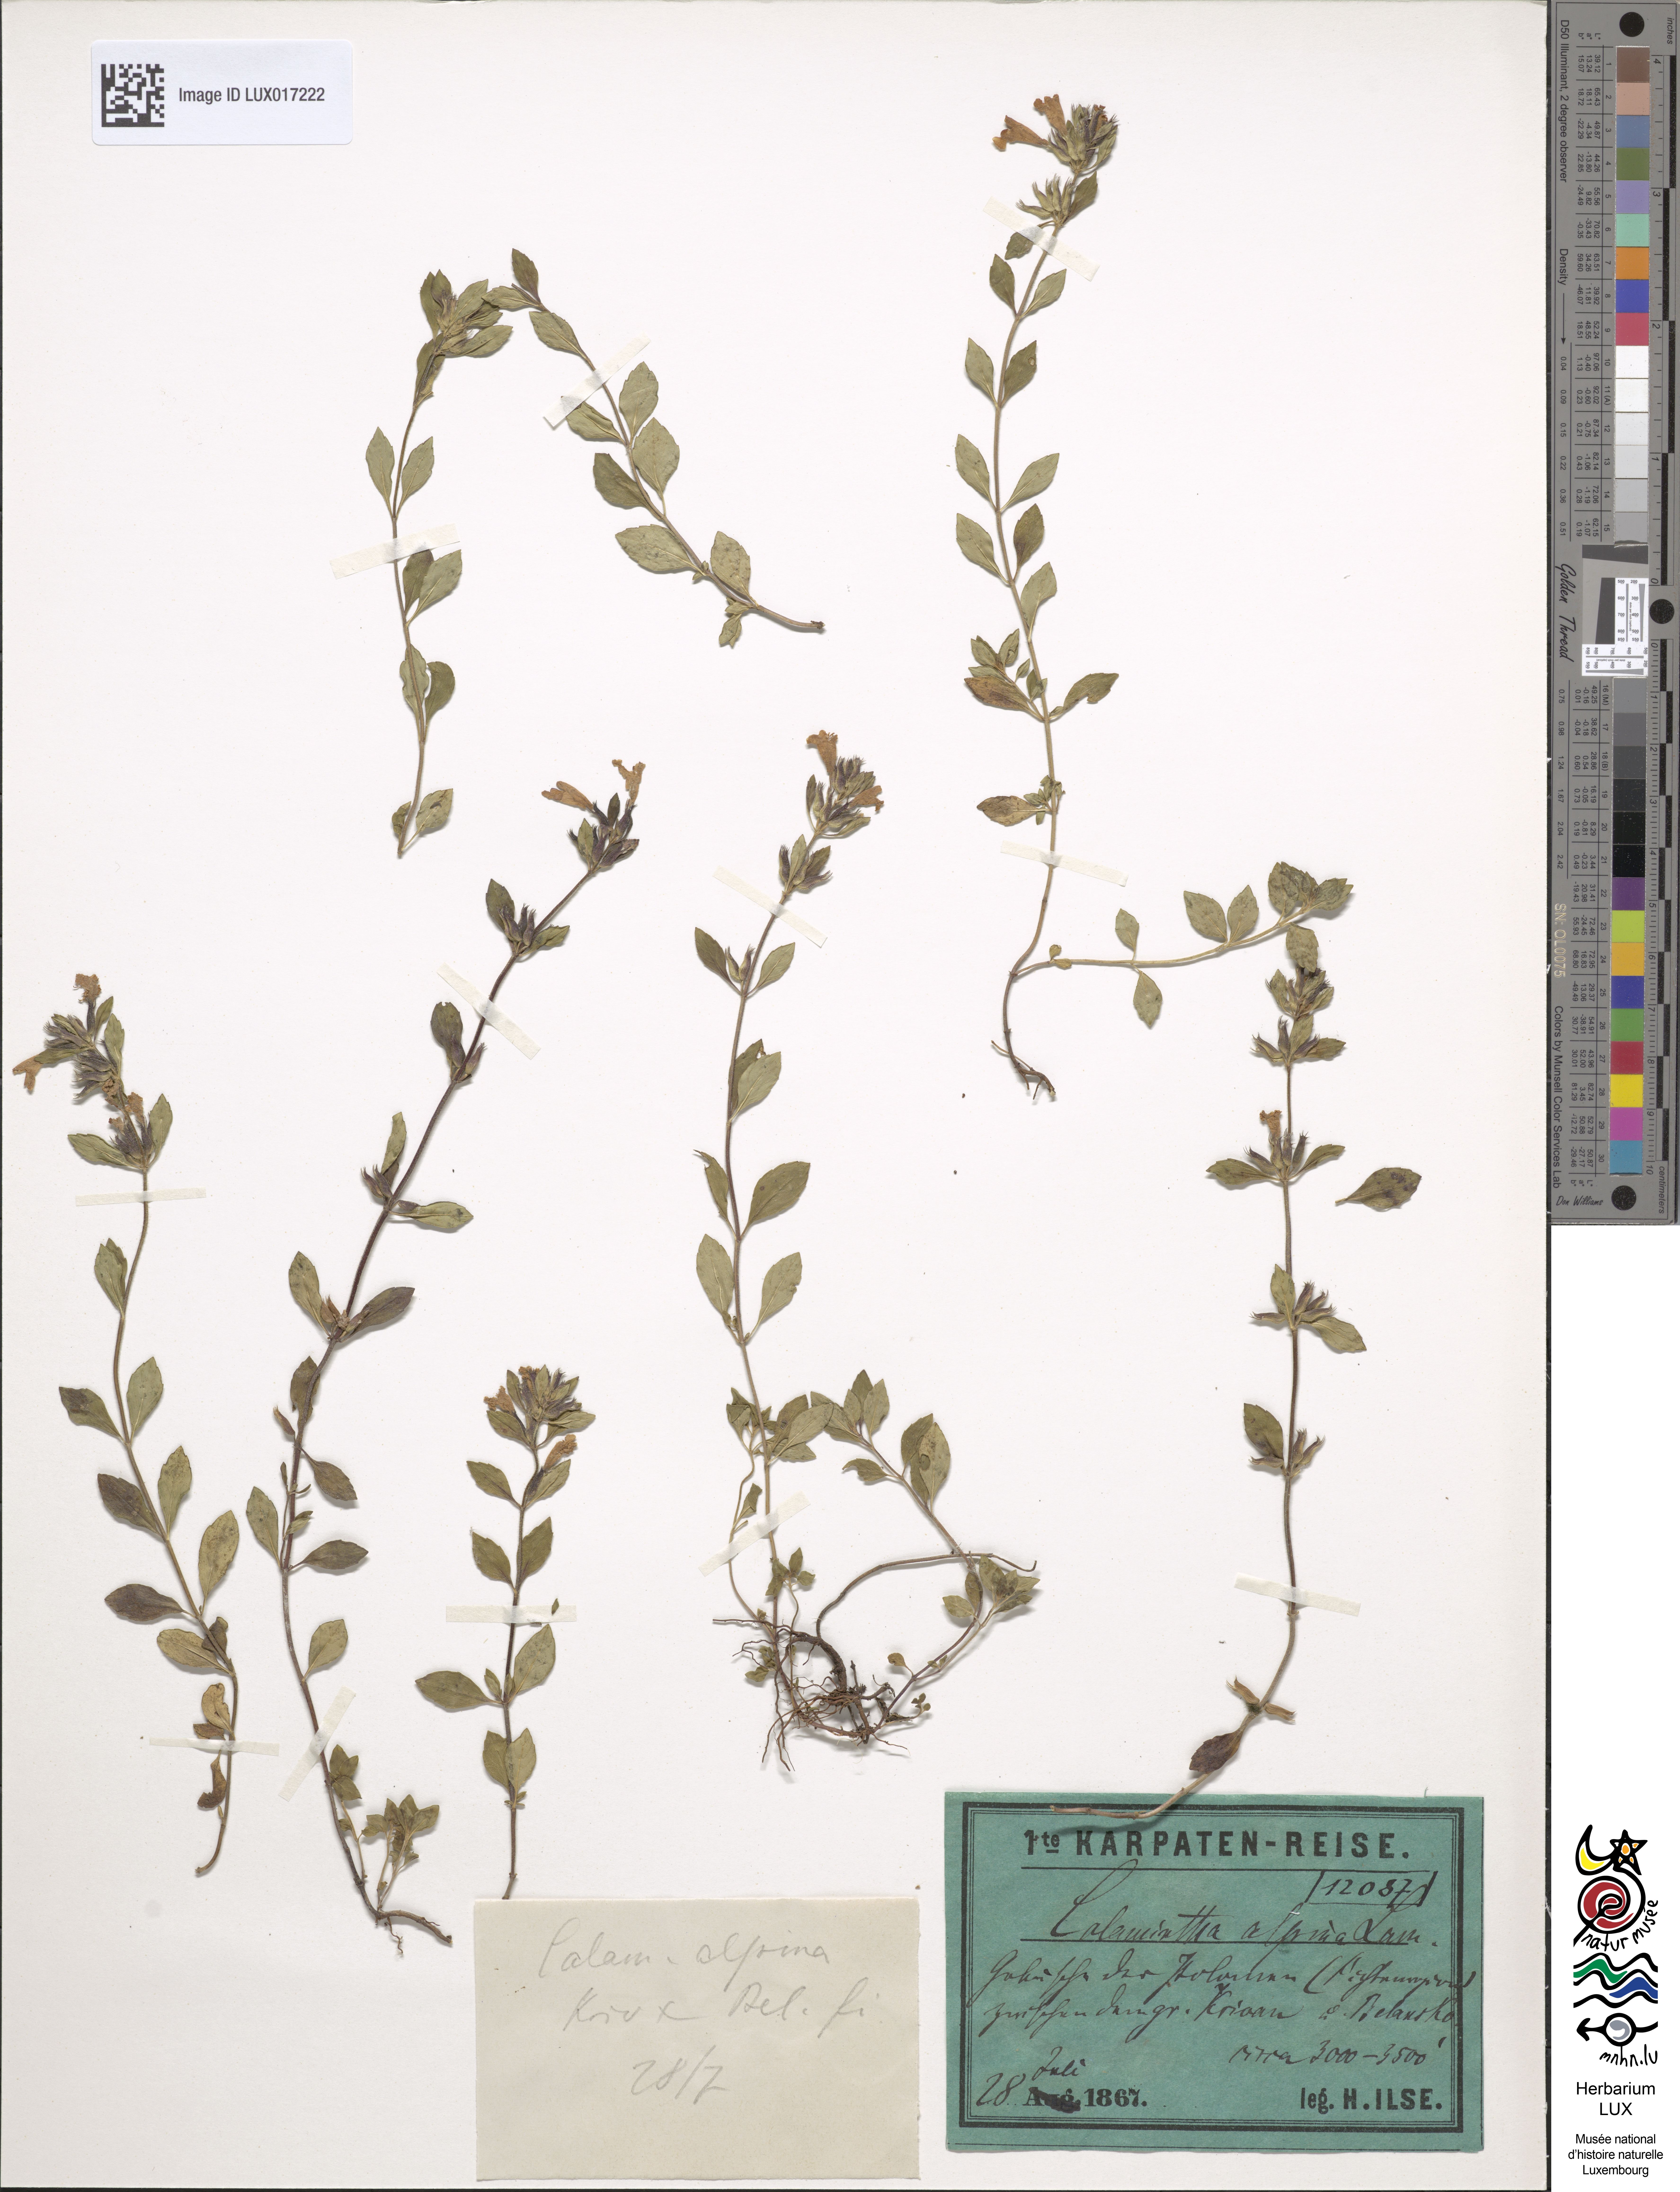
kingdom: Plantae
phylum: Tracheophyta
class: Magnoliopsida
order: Lamiales
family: Lamiaceae
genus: Clinopodium
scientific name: Clinopodium alpinum
